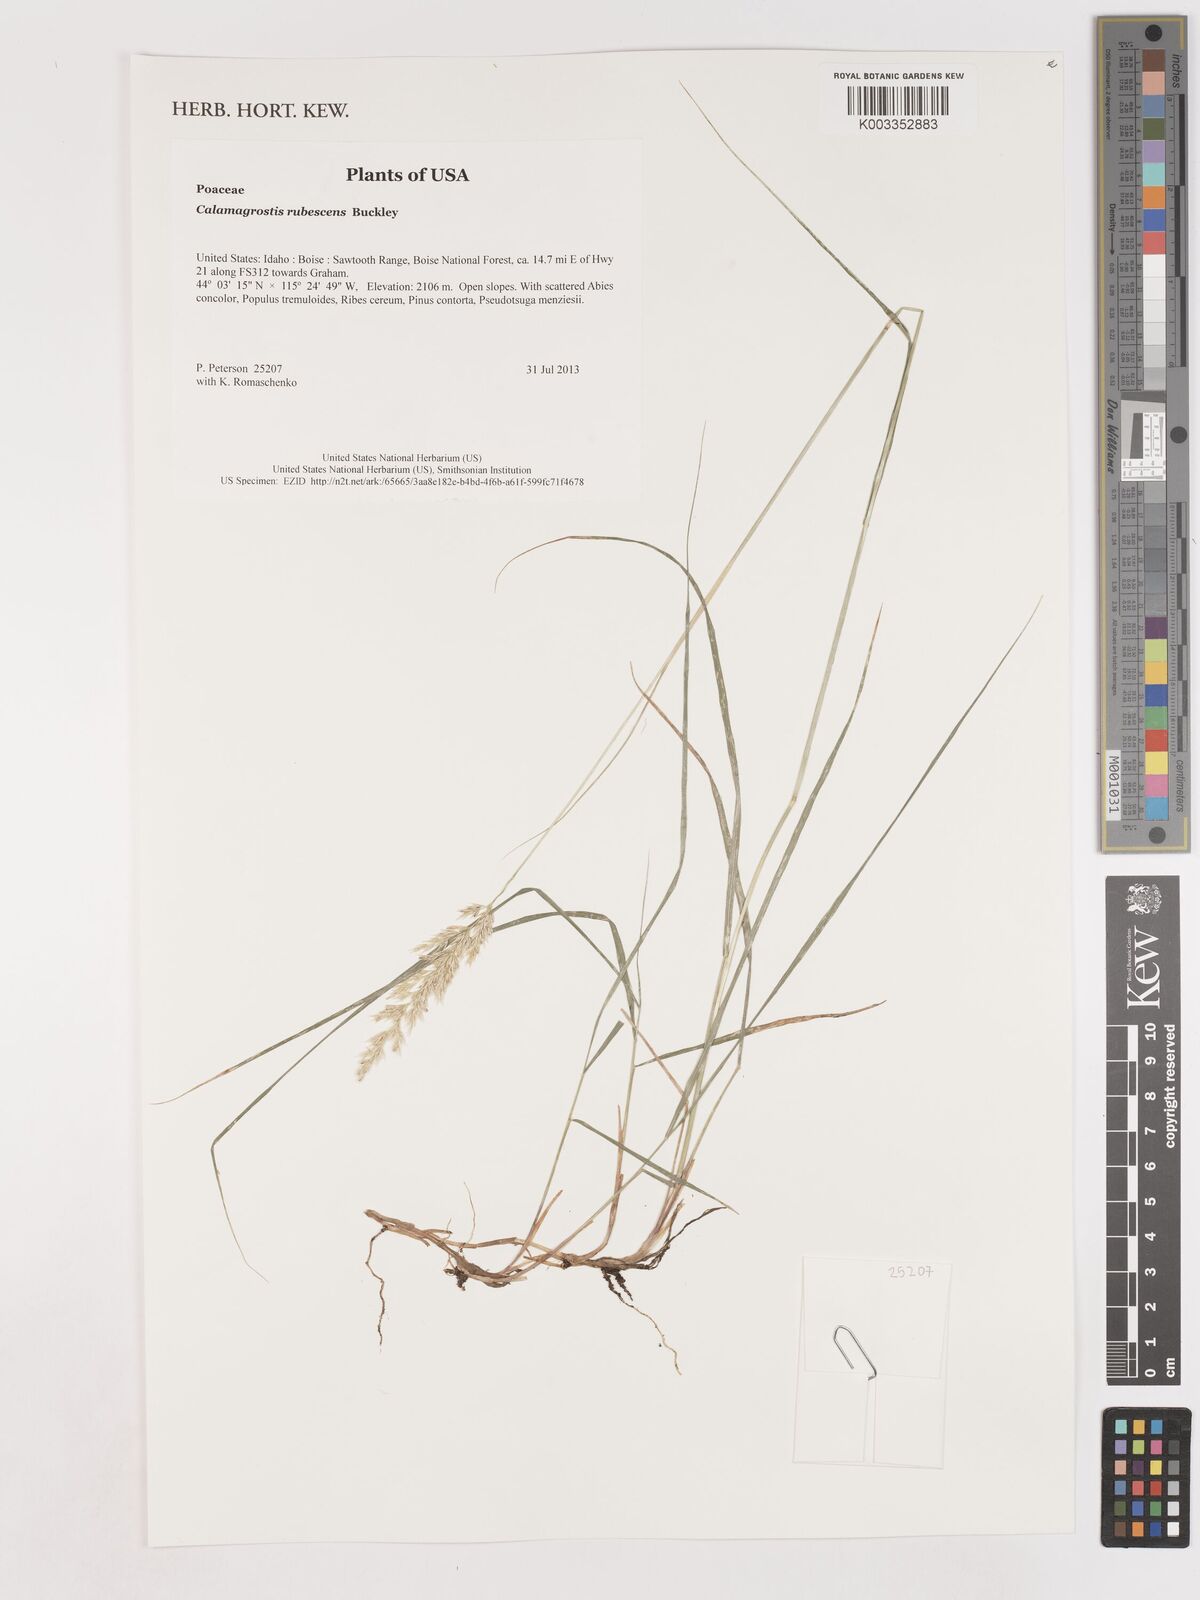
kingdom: Plantae
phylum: Tracheophyta
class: Liliopsida
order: Poales
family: Poaceae
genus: Calamagrostis
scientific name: Calamagrostis rubescens
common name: Pine grass
